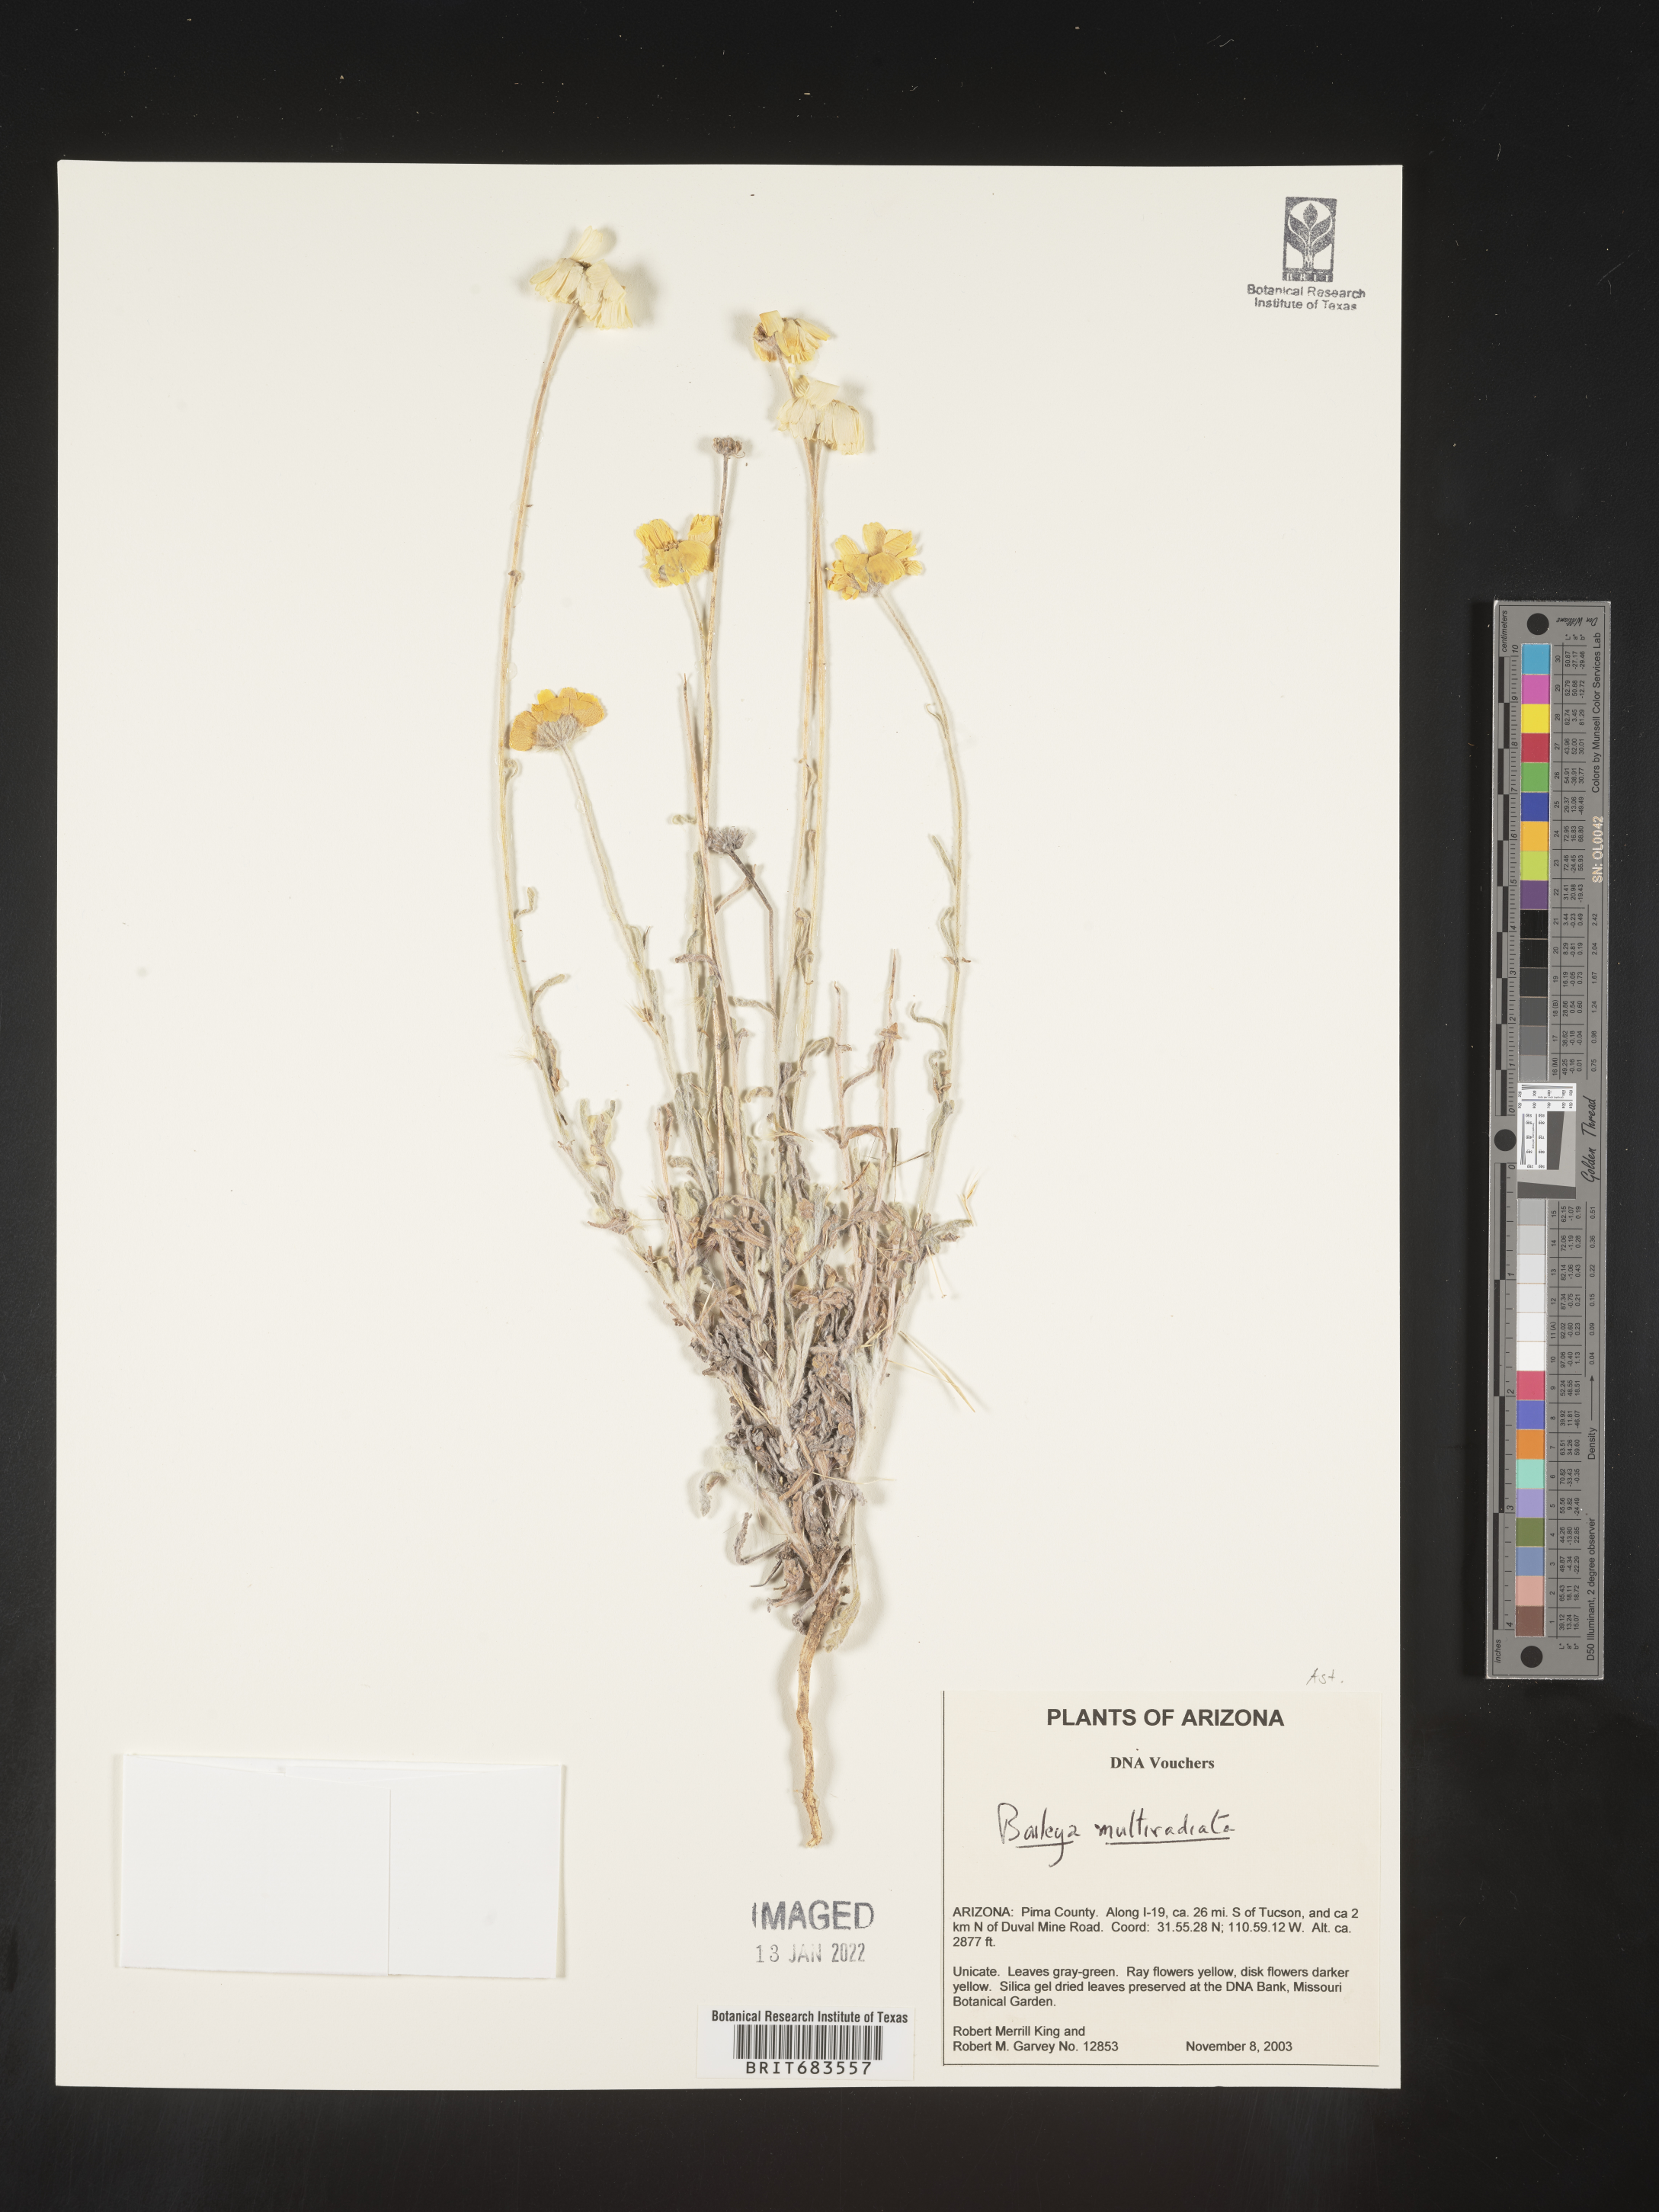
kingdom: Plantae
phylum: Tracheophyta
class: Magnoliopsida
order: Asterales
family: Asteraceae
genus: Baileya
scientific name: Baileya multiradiata
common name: Desert-marigold
